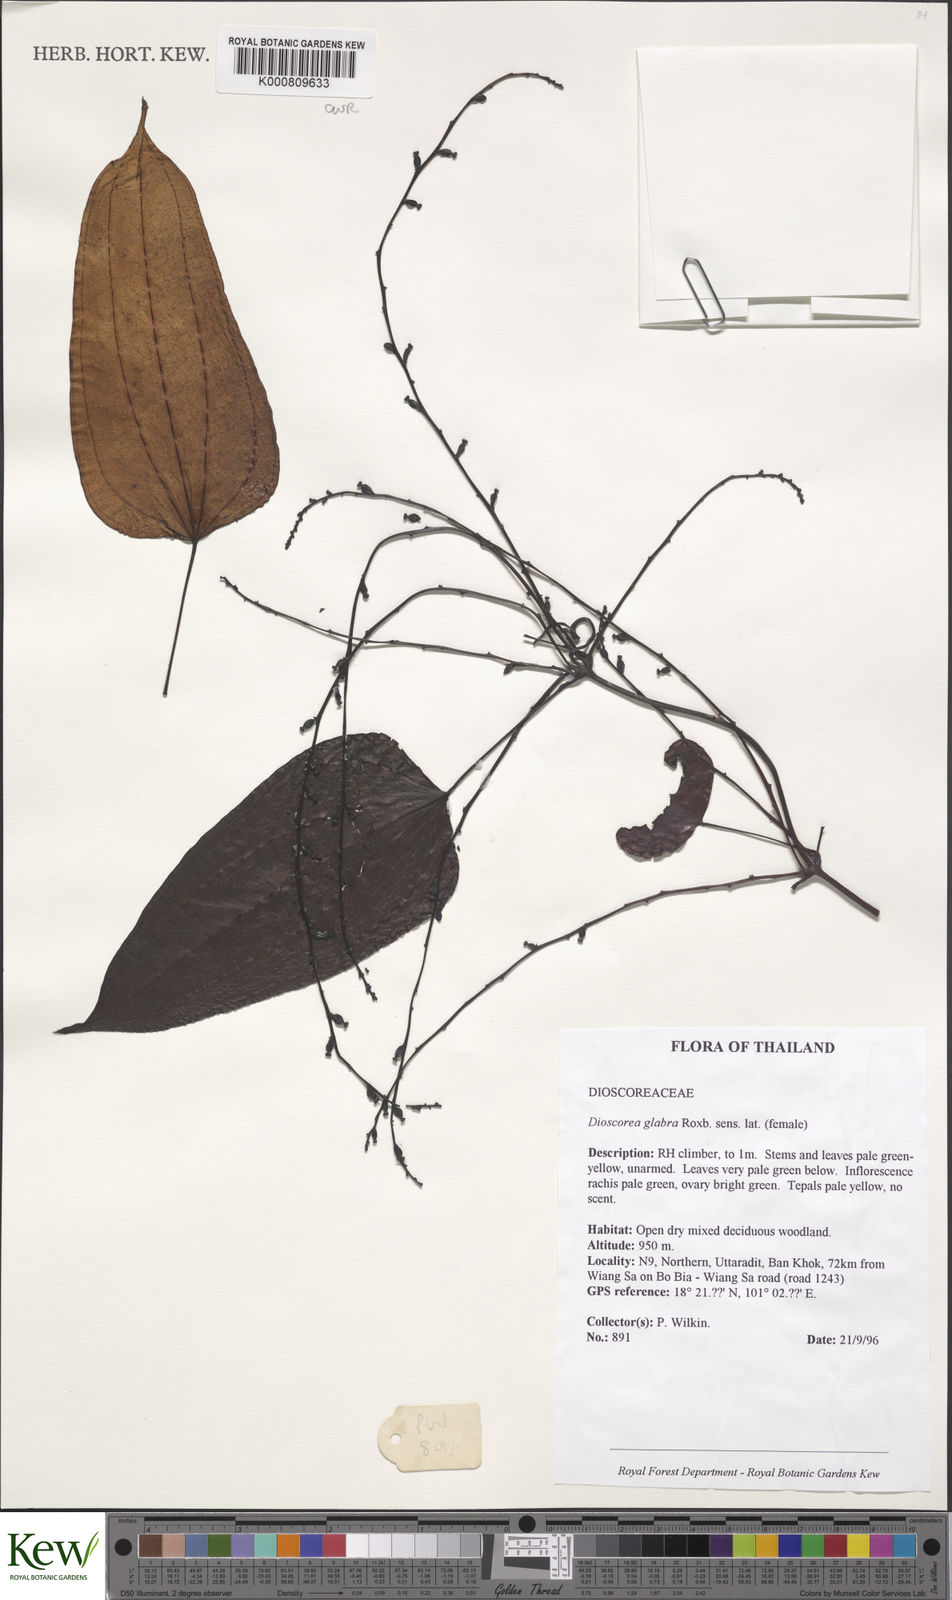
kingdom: Plantae
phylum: Tracheophyta
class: Liliopsida
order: Dioscoreales
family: Dioscoreaceae
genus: Dioscorea
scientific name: Dioscorea glabra
